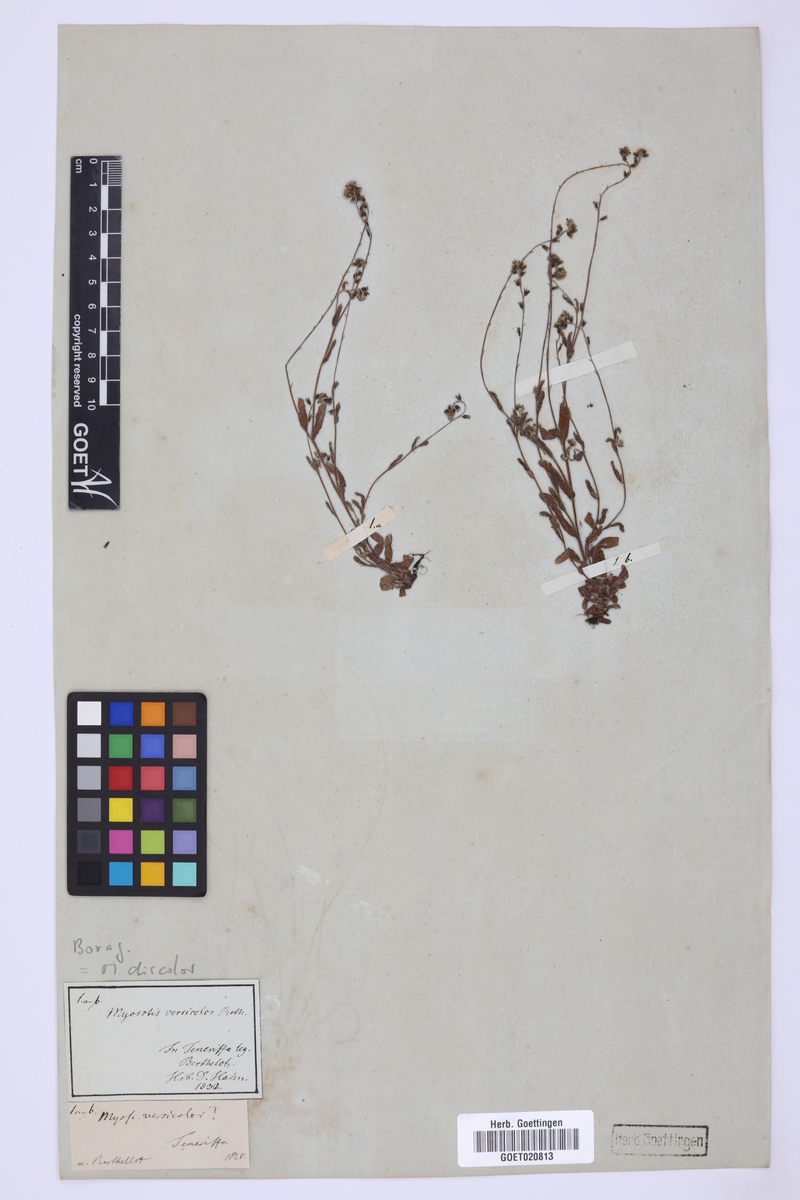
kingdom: Plantae
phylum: Tracheophyta
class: Magnoliopsida
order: Boraginales
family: Boraginaceae
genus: Myosotis
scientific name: Myosotis discolor
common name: Changing forget-me-not
